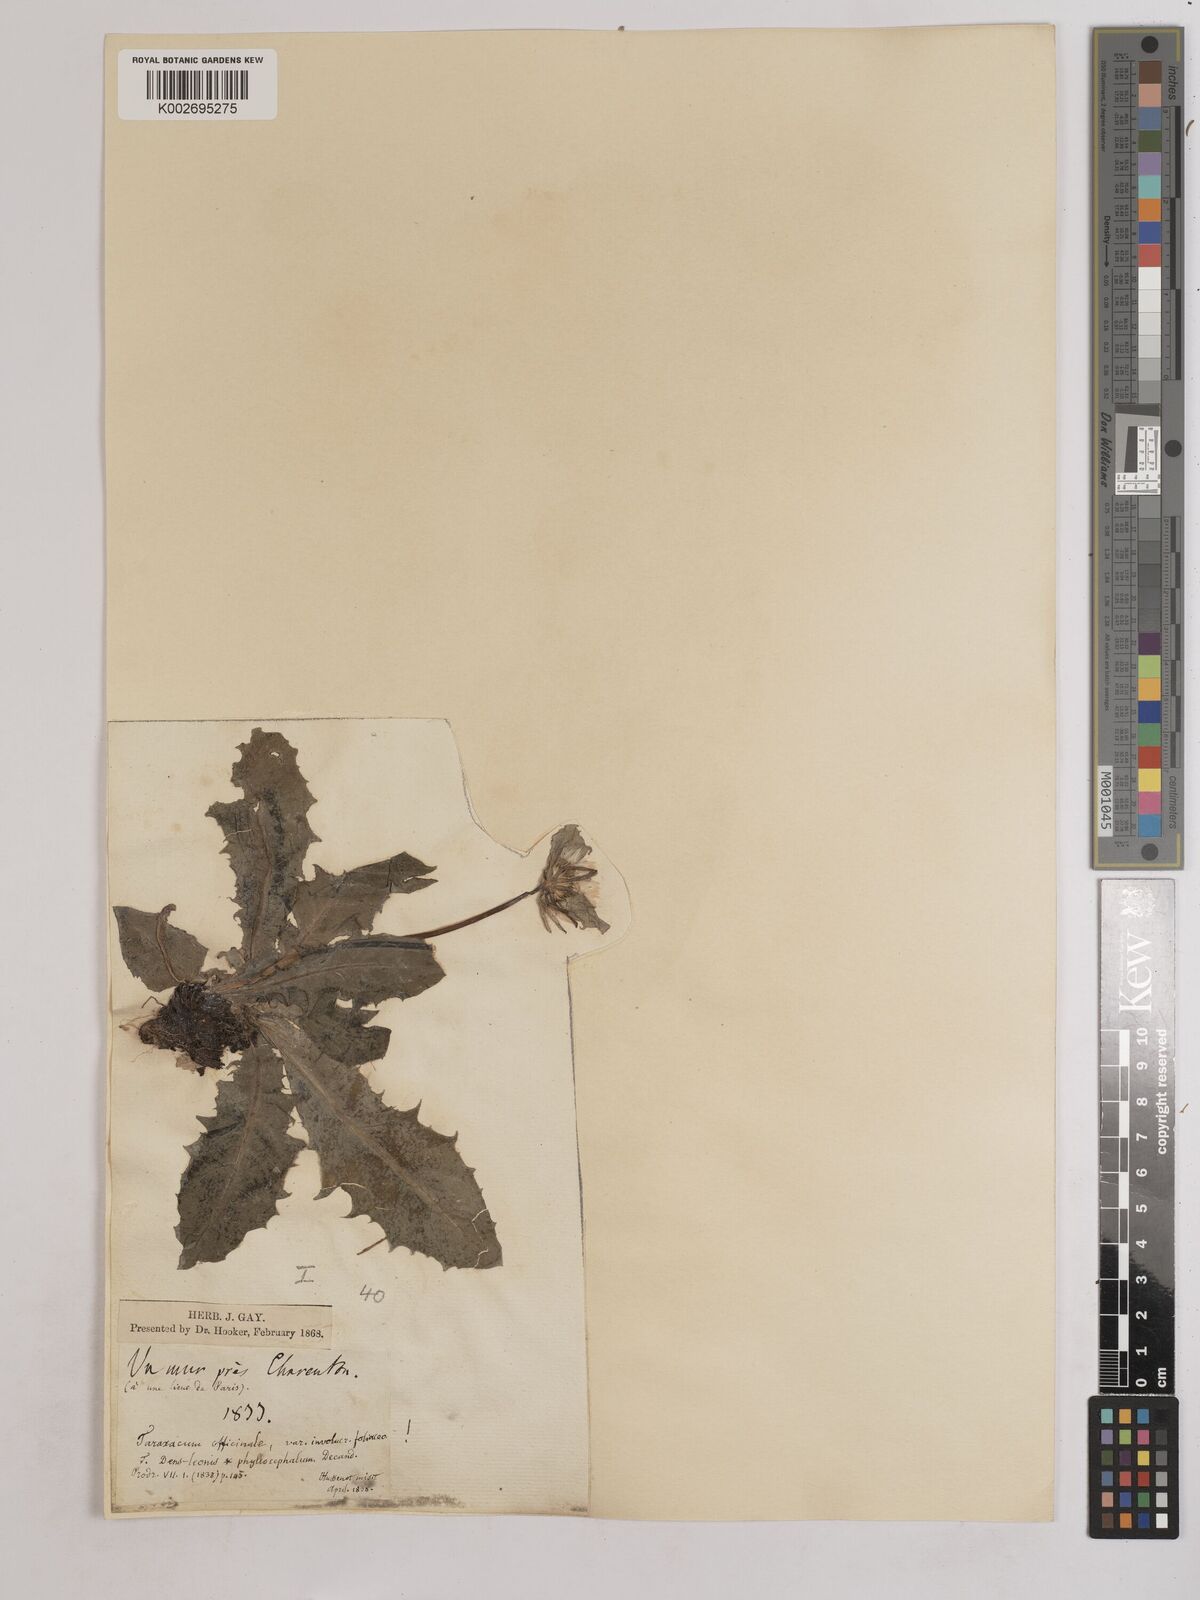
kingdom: Plantae
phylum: Tracheophyta
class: Magnoliopsida
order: Asterales
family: Asteraceae
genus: Taraxacum
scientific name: Taraxacum officinale
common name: Common dandelion
